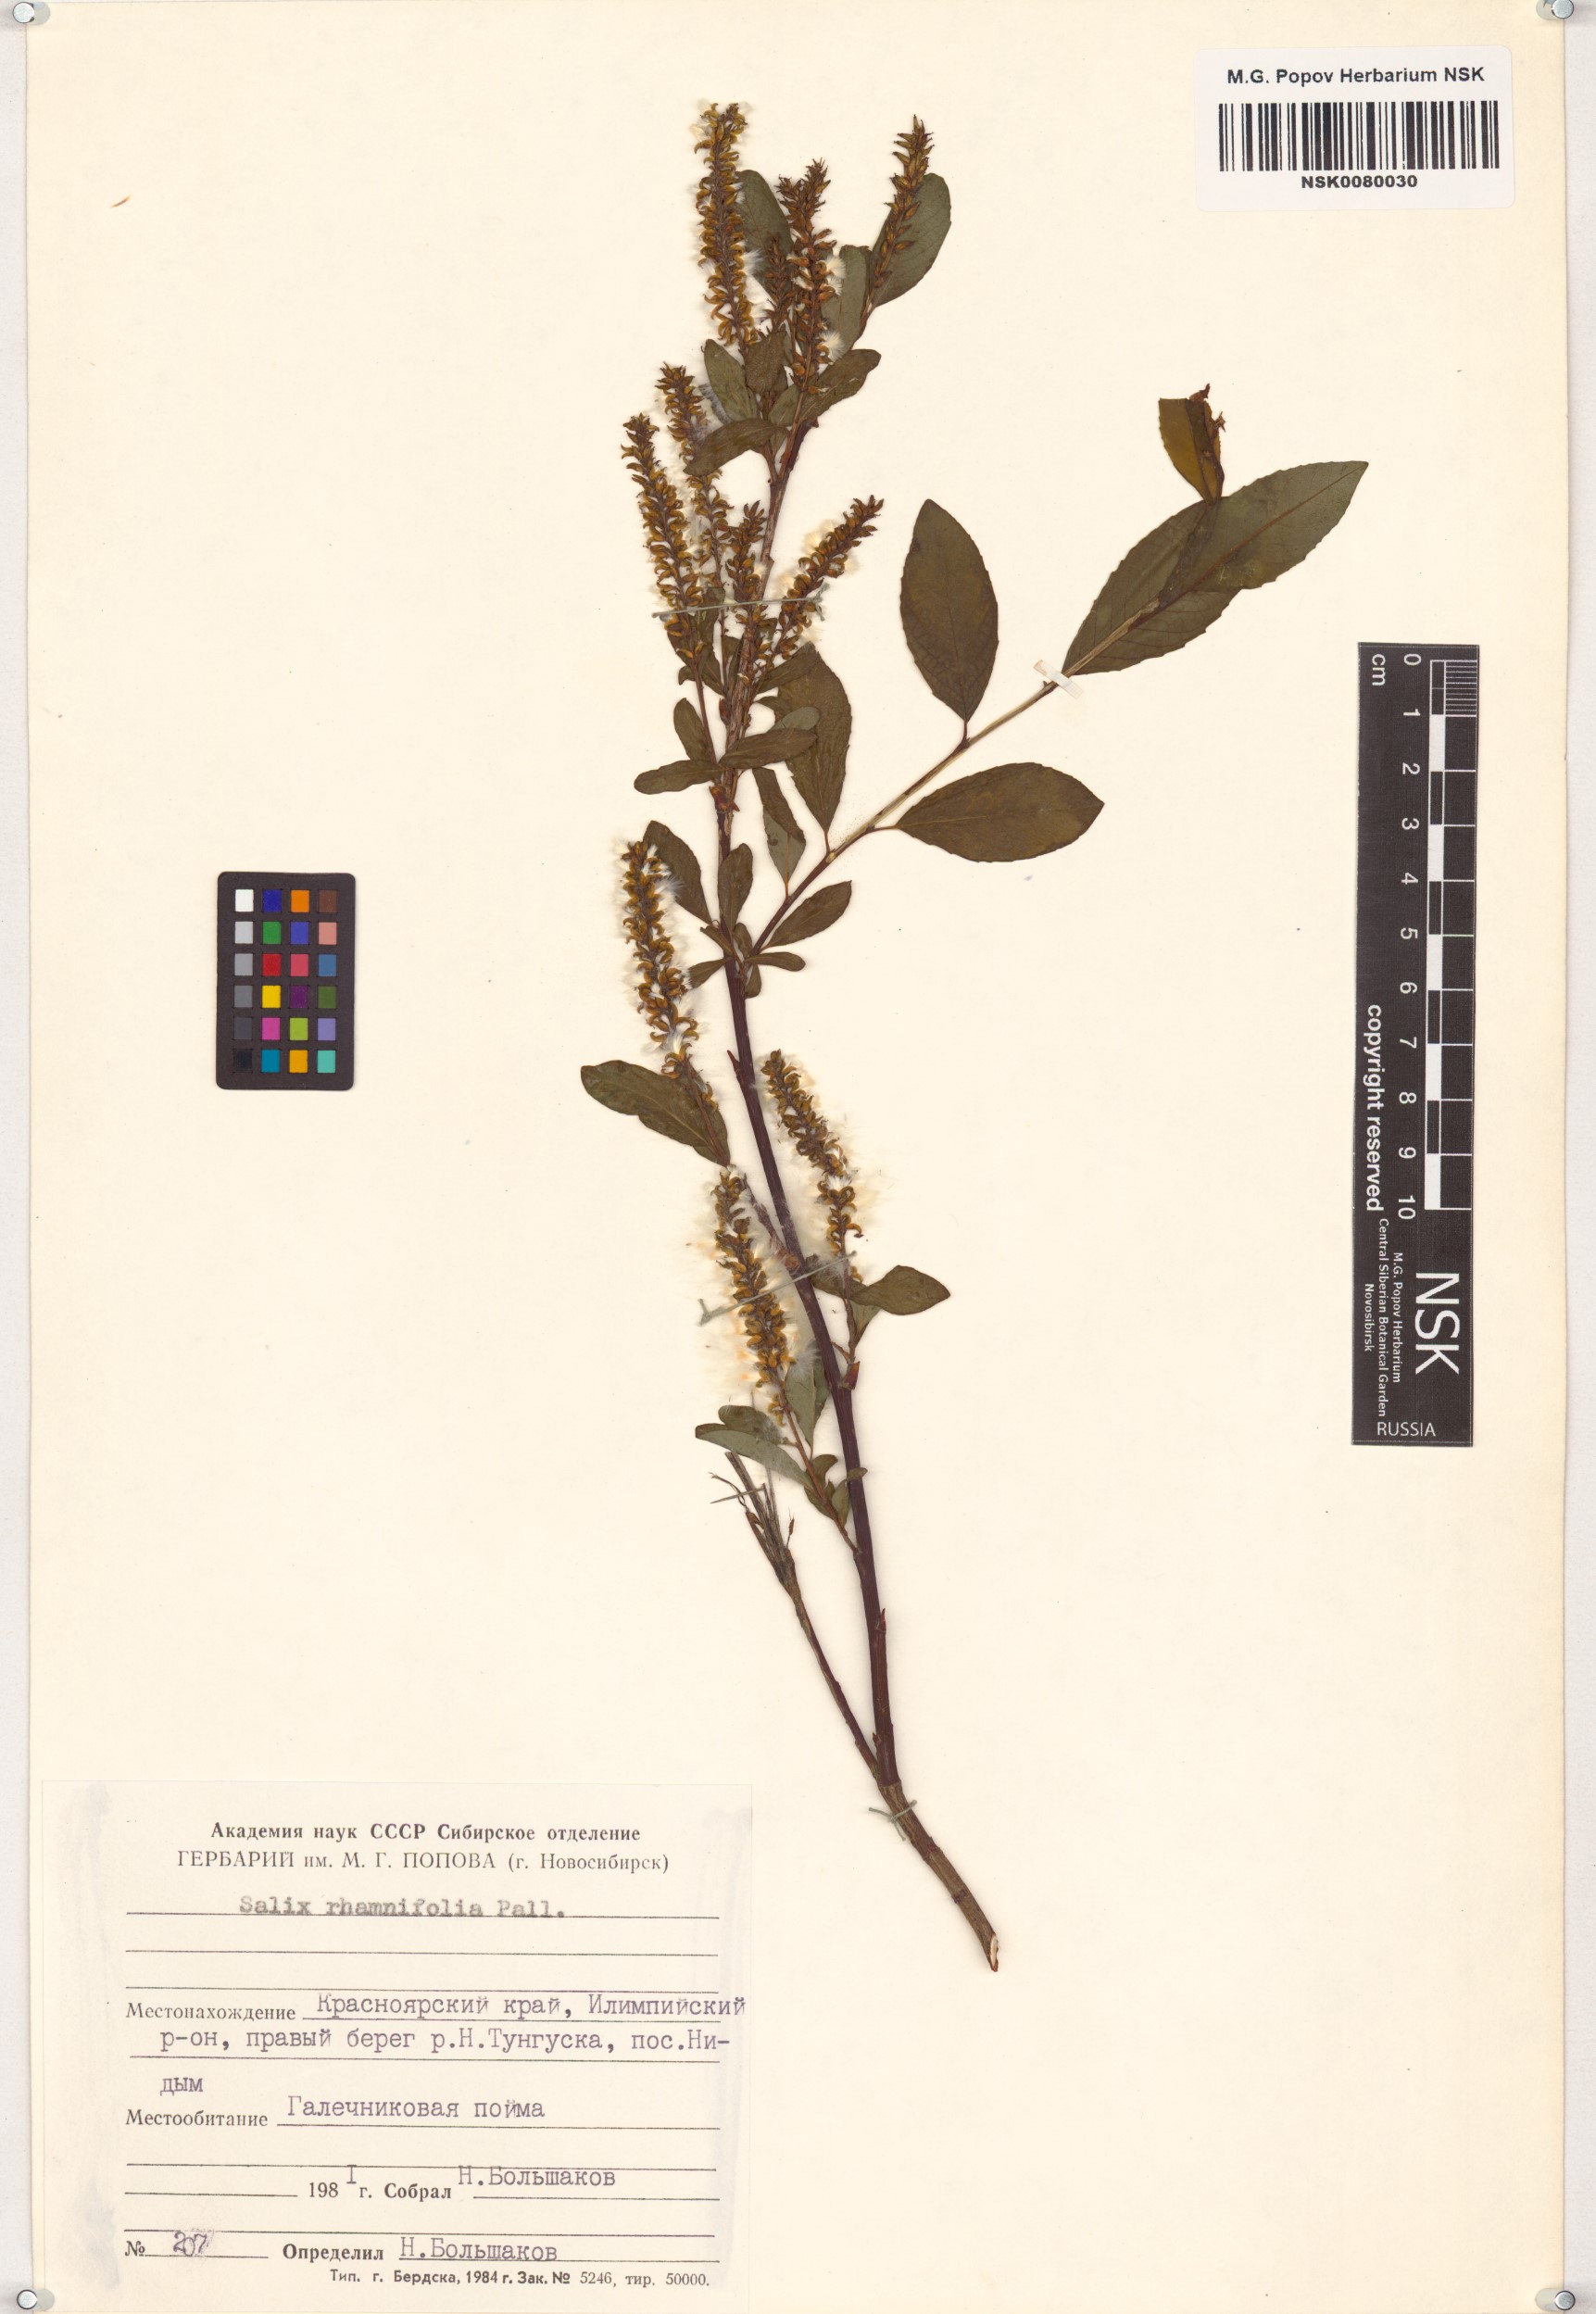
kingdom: Plantae
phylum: Tracheophyta
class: Magnoliopsida
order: Malpighiales
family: Salicaceae
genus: Salix
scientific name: Salix rhamnifolia
